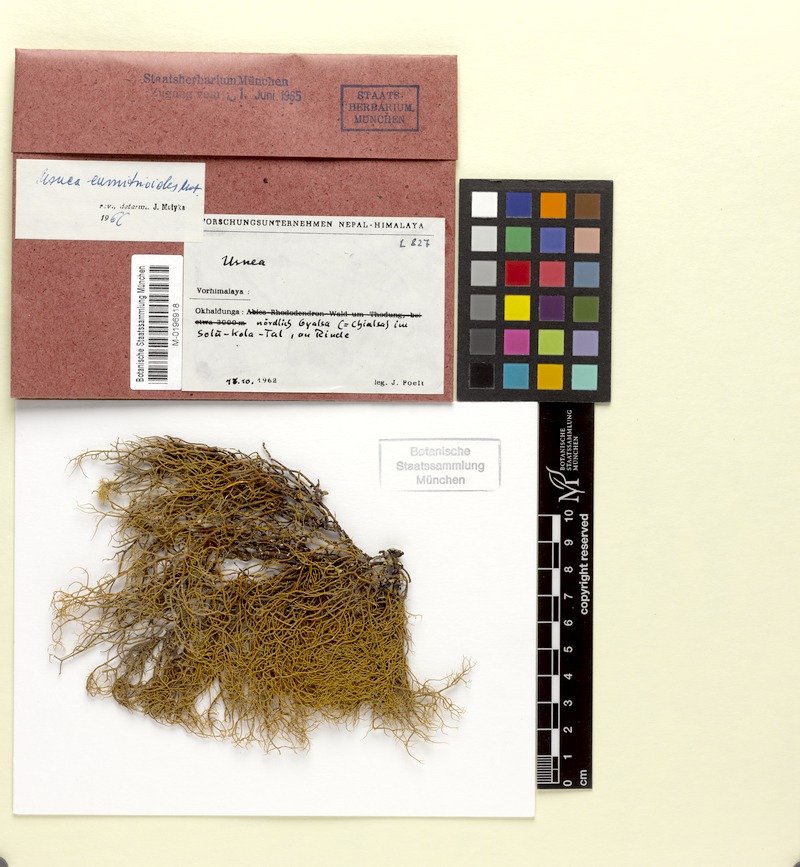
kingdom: Fungi
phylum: Ascomycota
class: Lecanoromycetes
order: Lecanorales
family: Parmeliaceae
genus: Usnea
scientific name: Usnea eumitrioides
